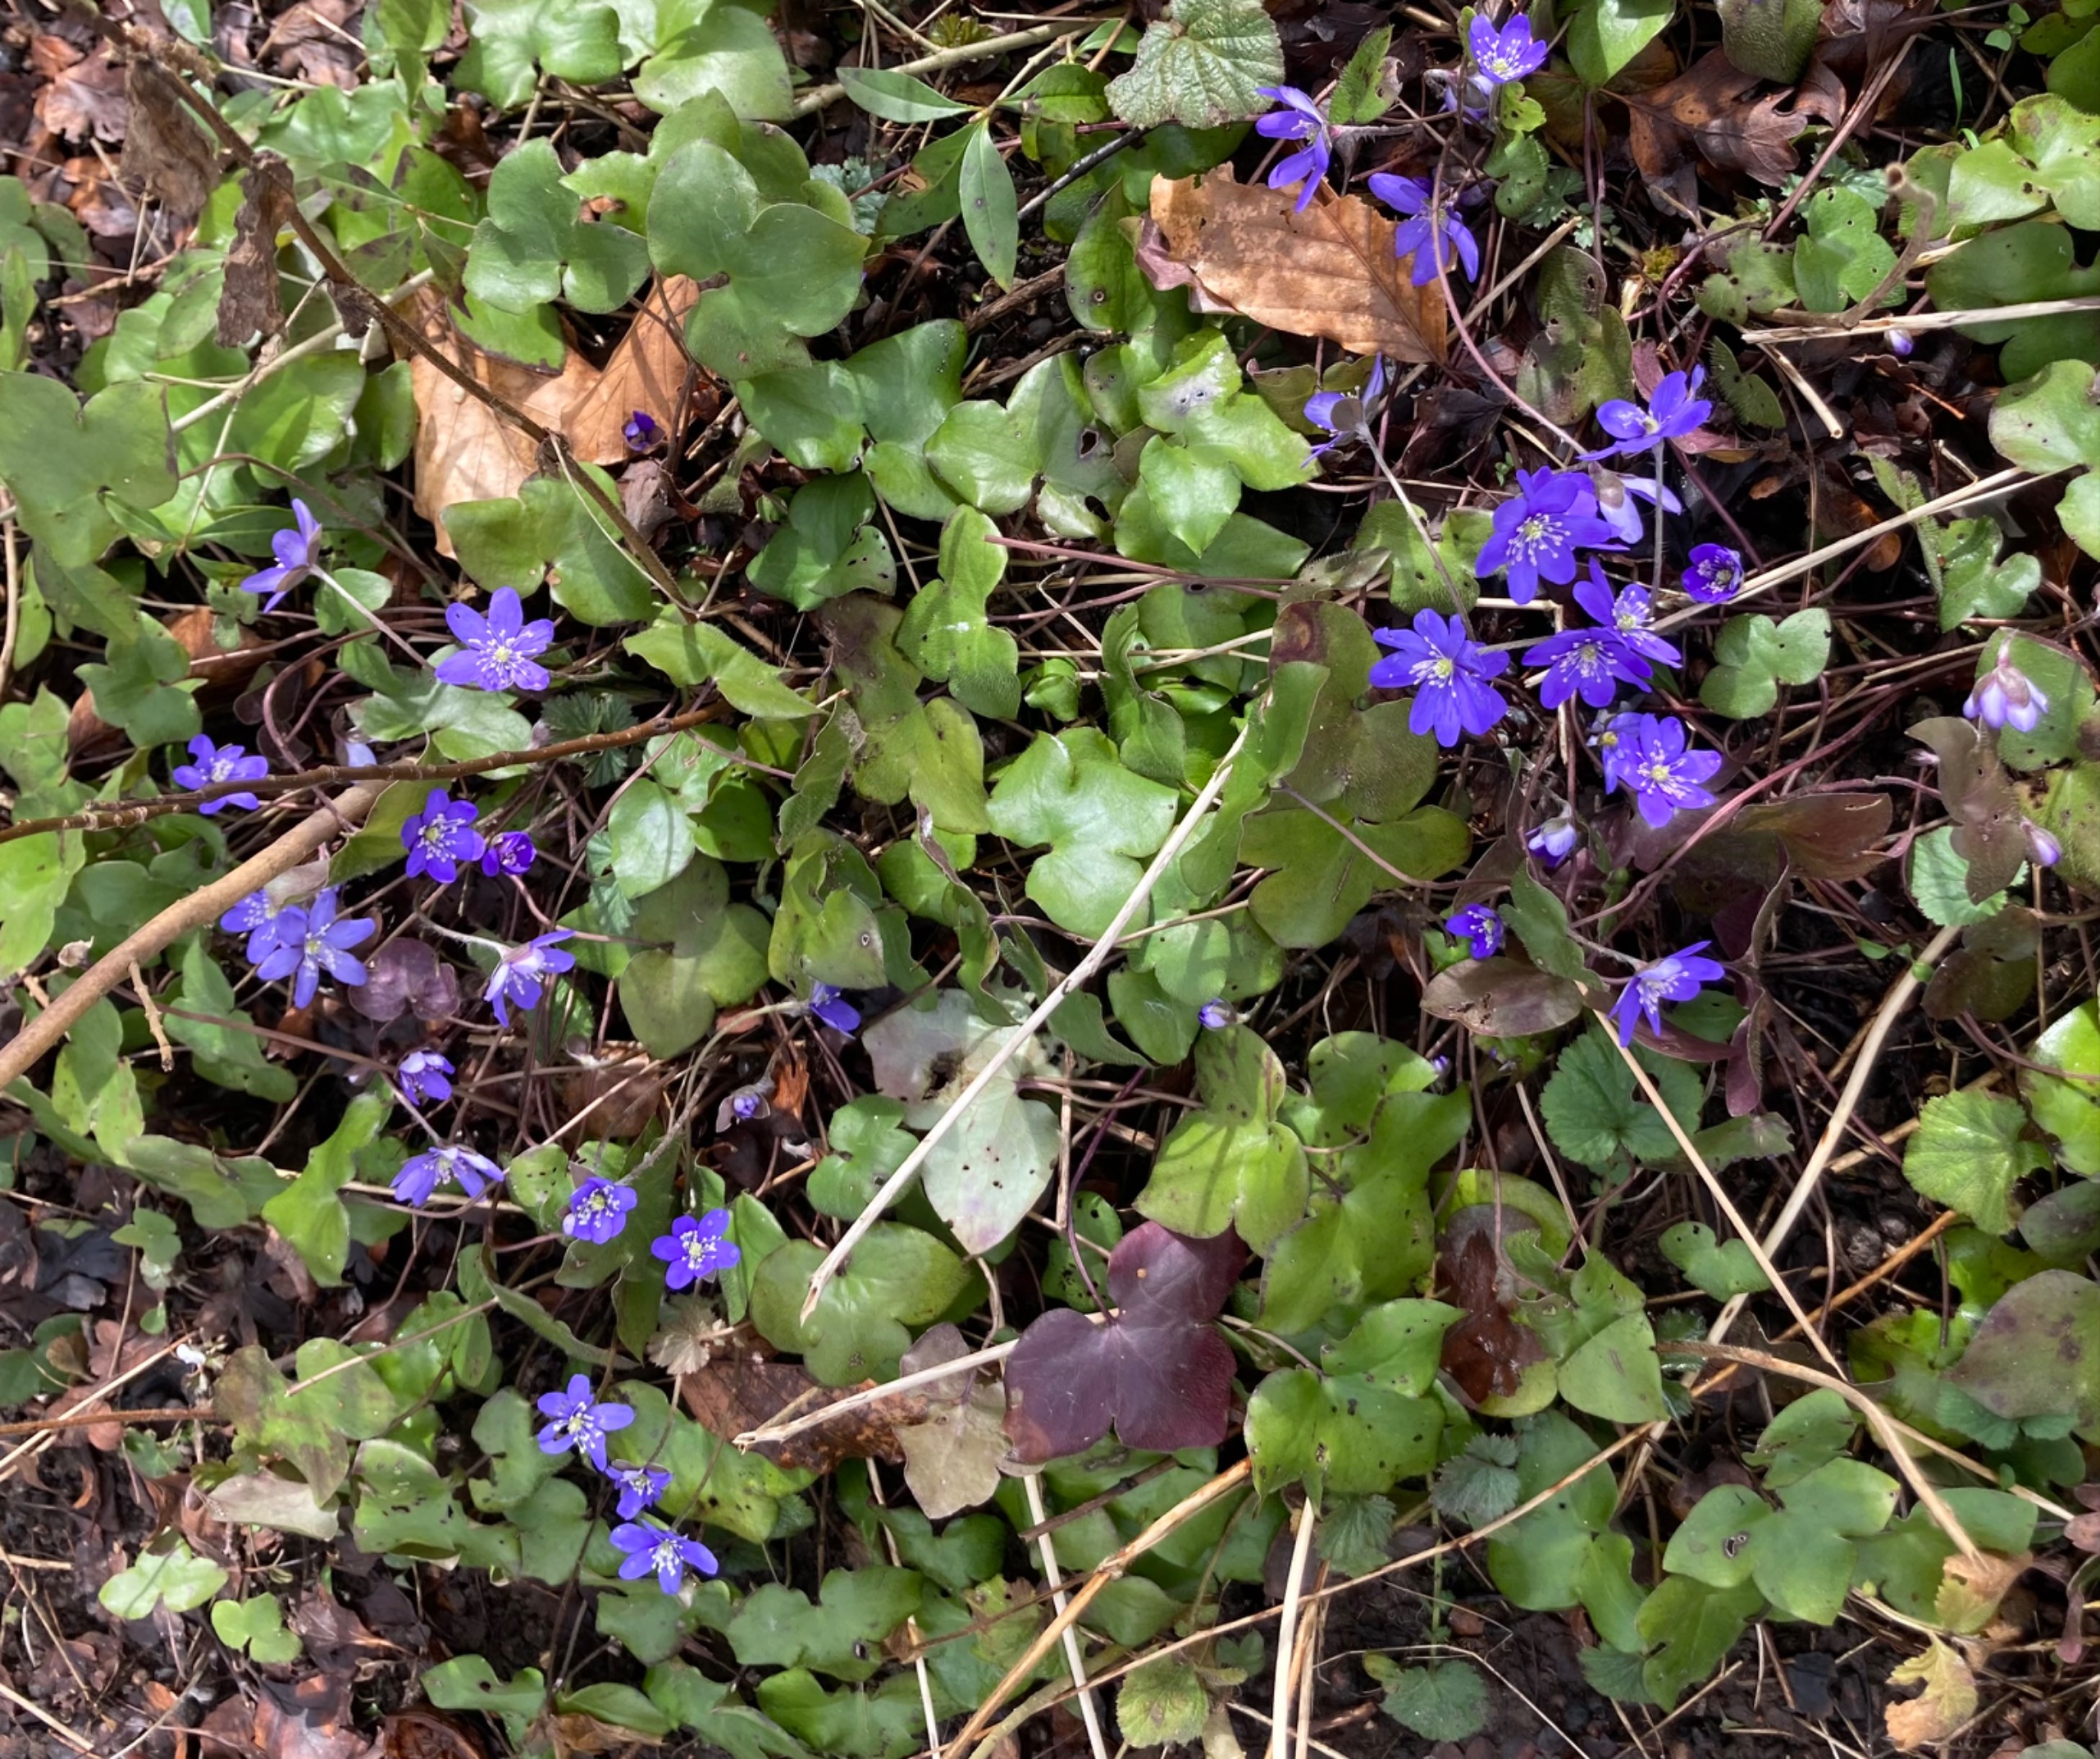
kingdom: Plantae
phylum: Tracheophyta
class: Magnoliopsida
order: Ranunculales
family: Ranunculaceae
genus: Hepatica
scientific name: Hepatica nobilis
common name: Blå anemone
